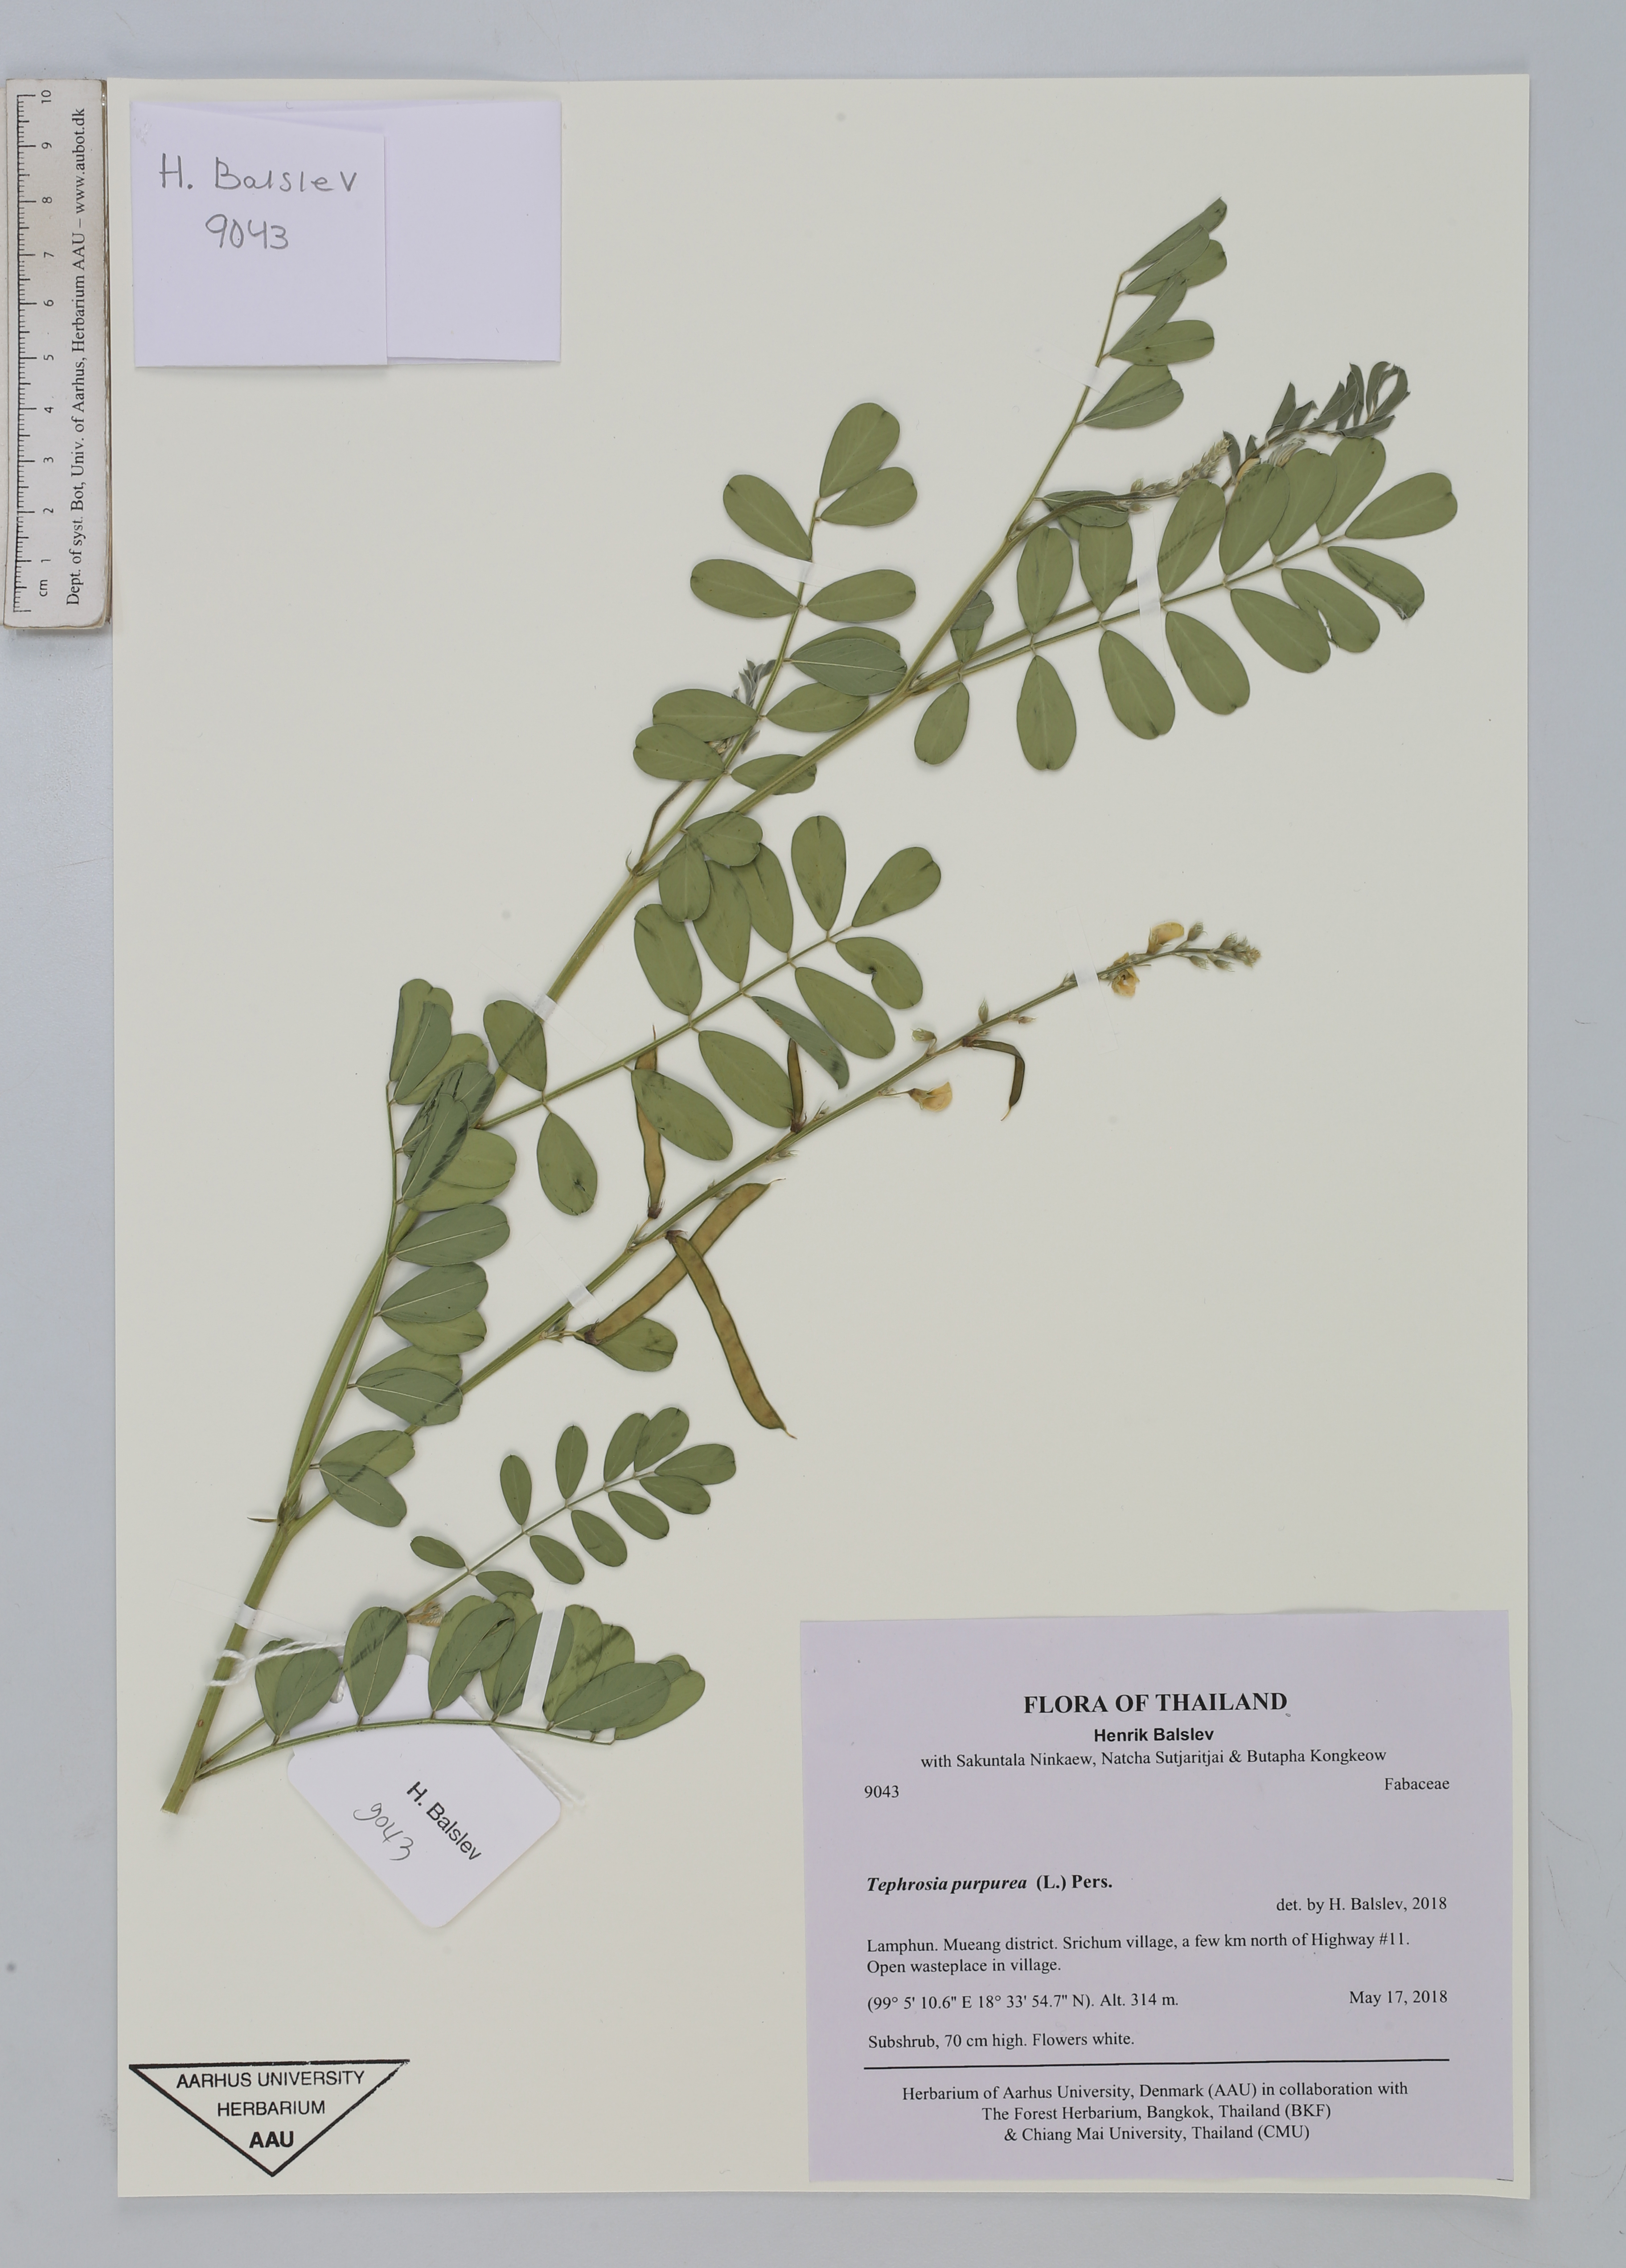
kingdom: Plantae
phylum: Tracheophyta
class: Magnoliopsida
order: Fabales
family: Fabaceae
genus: Tephrosia
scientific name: Tephrosia purpurea
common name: Fishpoison
